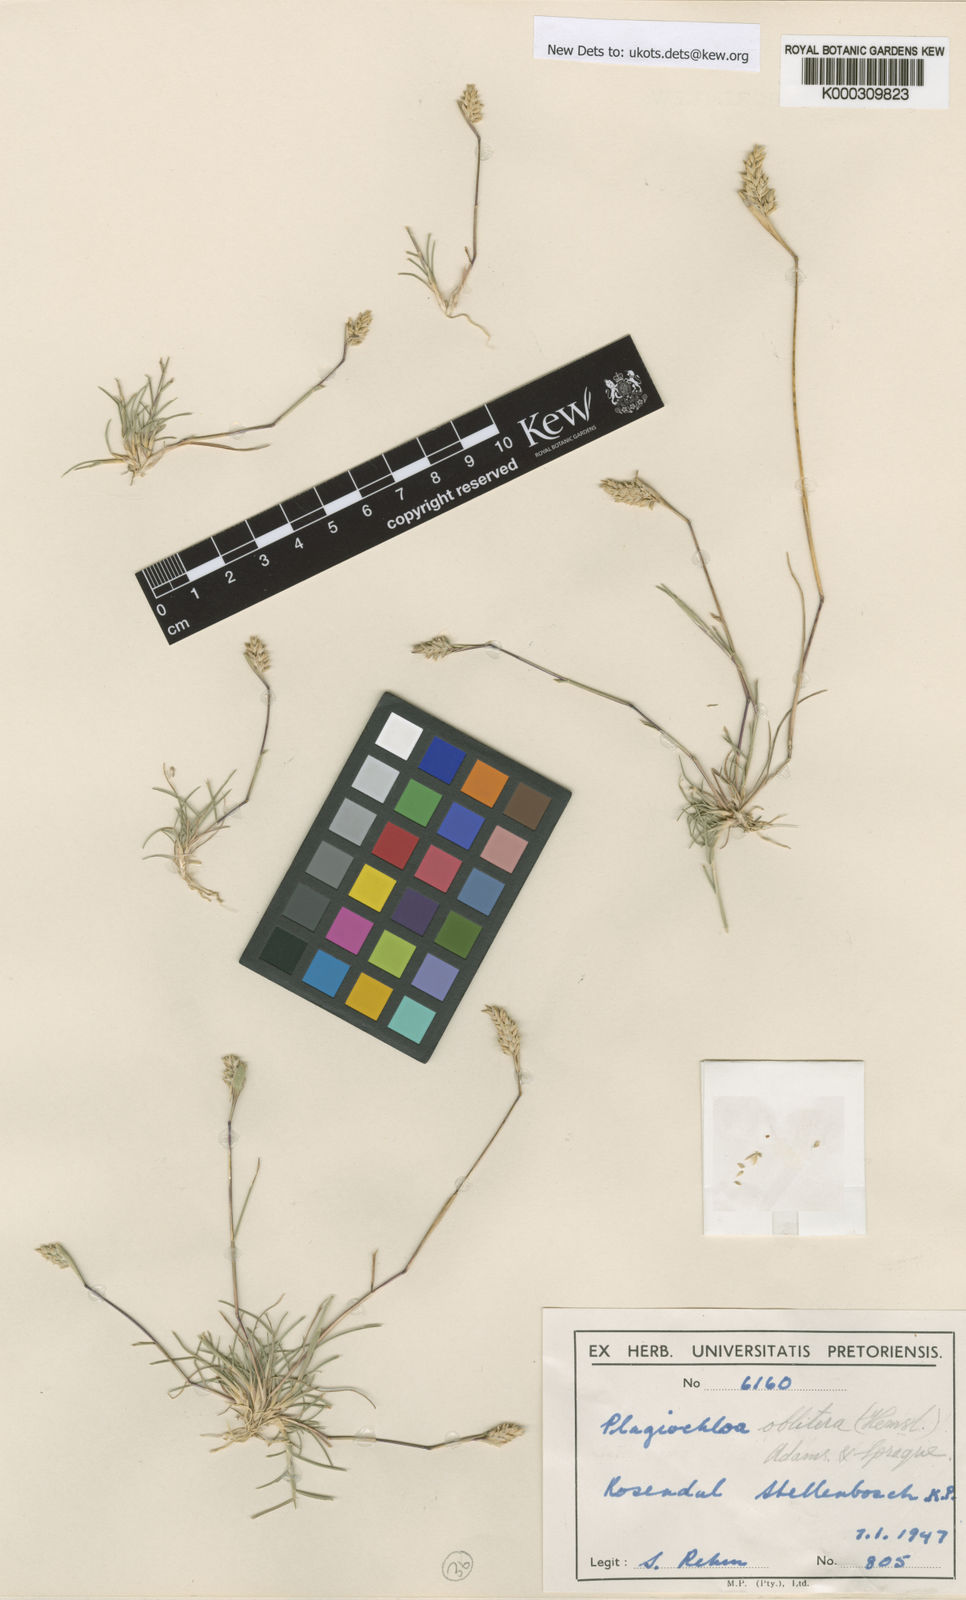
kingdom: Plantae
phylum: Tracheophyta
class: Liliopsida
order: Poales
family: Poaceae
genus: Tribolium
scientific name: Tribolium obliterum
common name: Capetown grass
